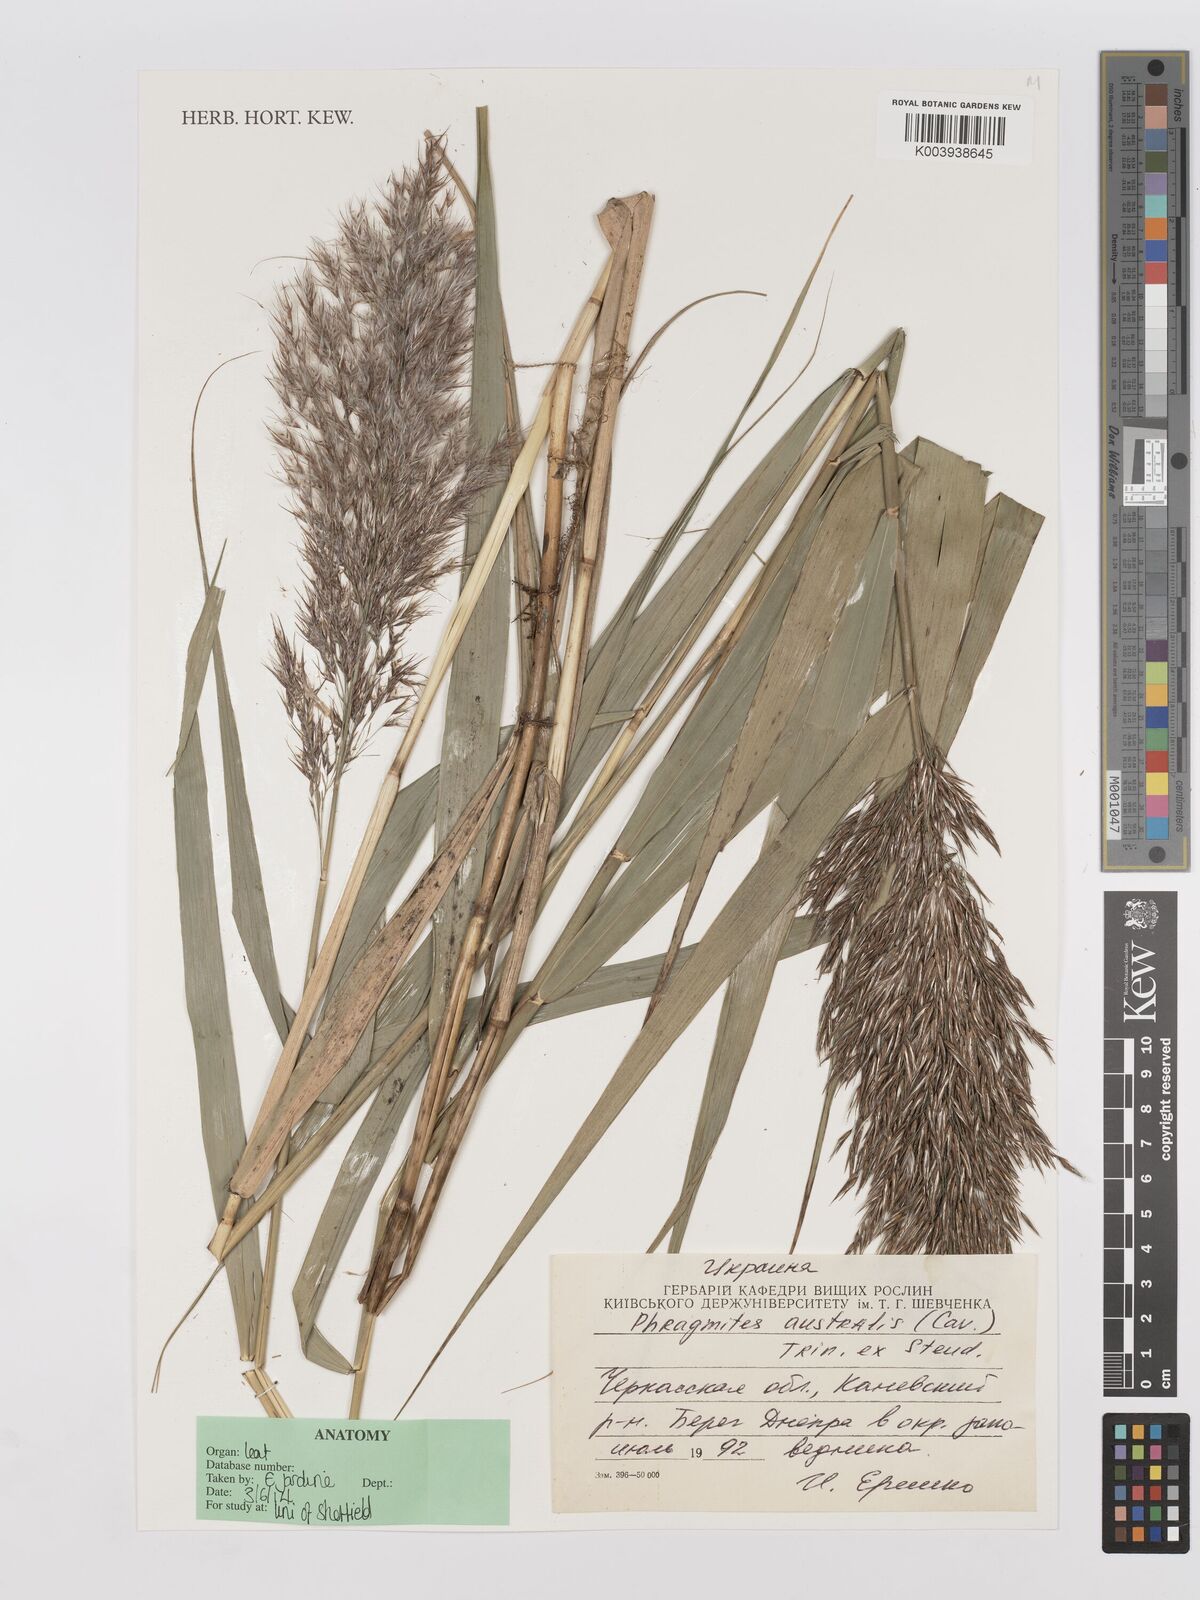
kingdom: Plantae
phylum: Tracheophyta
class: Liliopsida
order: Poales
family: Poaceae
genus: Phragmites
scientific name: Phragmites australis
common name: Common reed
